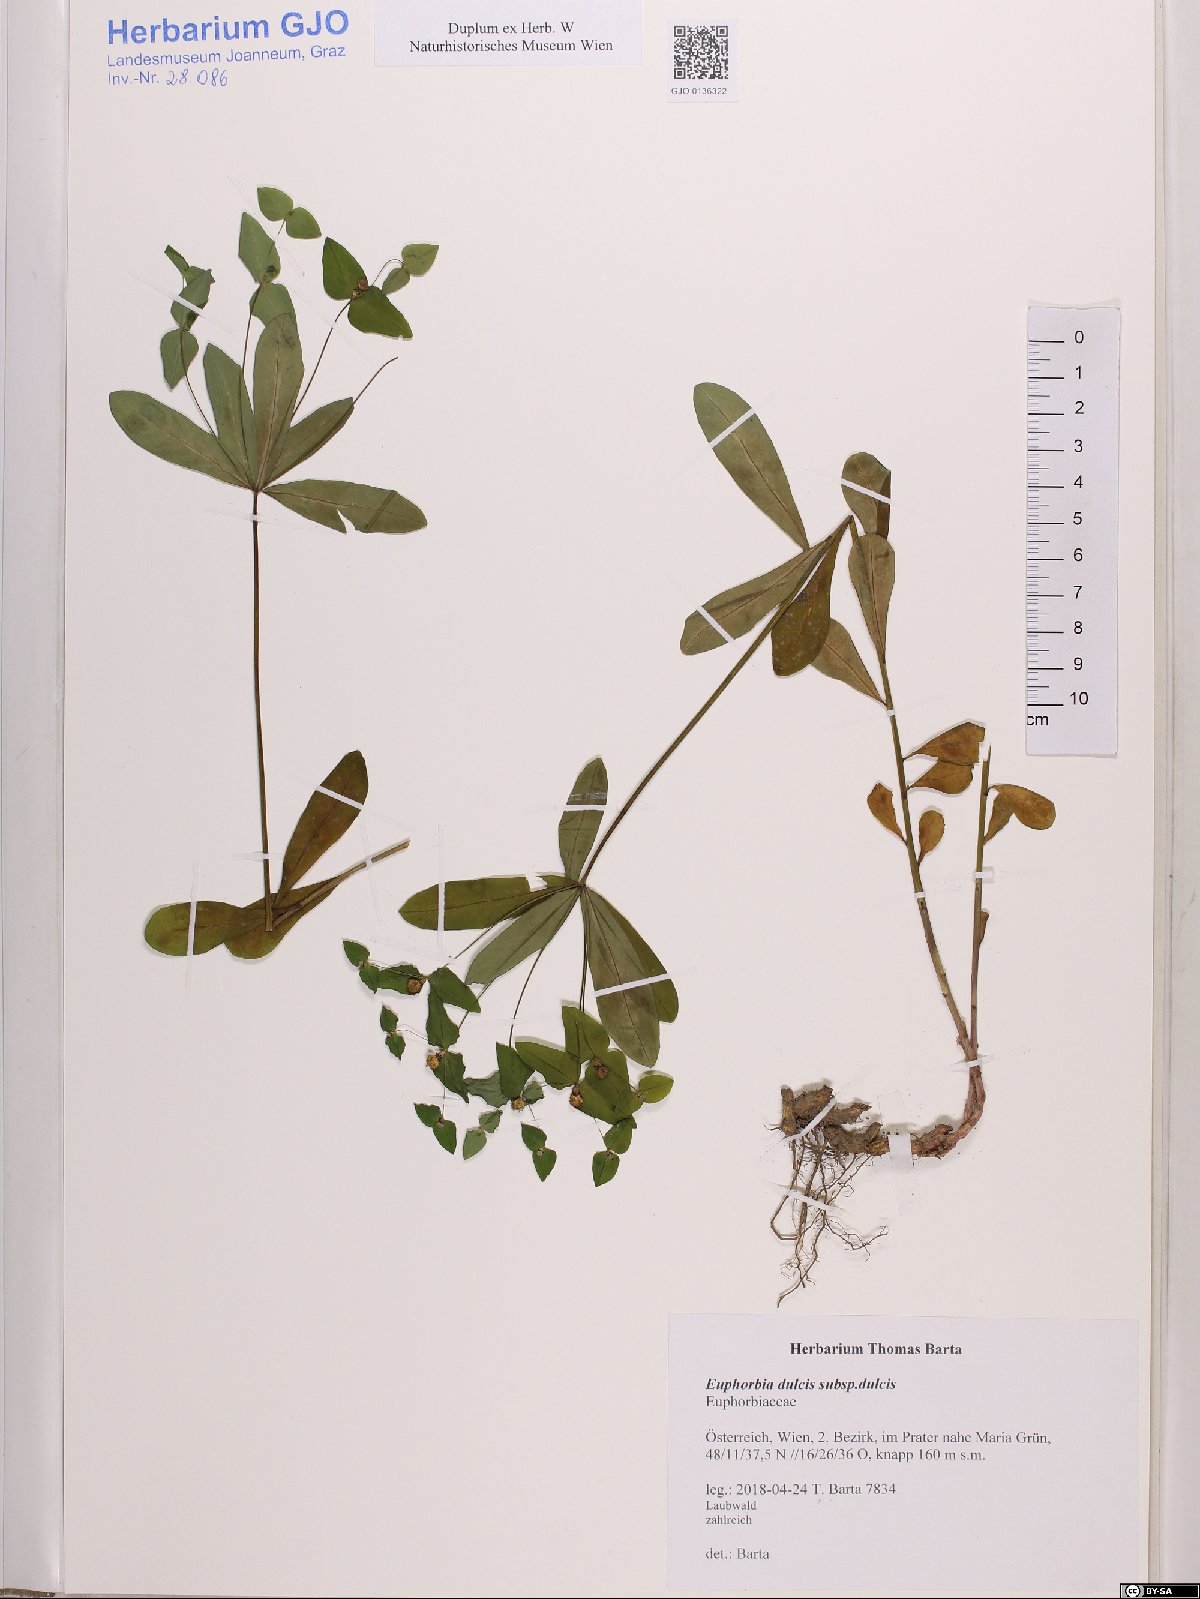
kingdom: Plantae
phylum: Tracheophyta
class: Magnoliopsida
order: Malpighiales
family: Euphorbiaceae
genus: Euphorbia
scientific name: Euphorbia dulcis
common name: Sweet spurge
